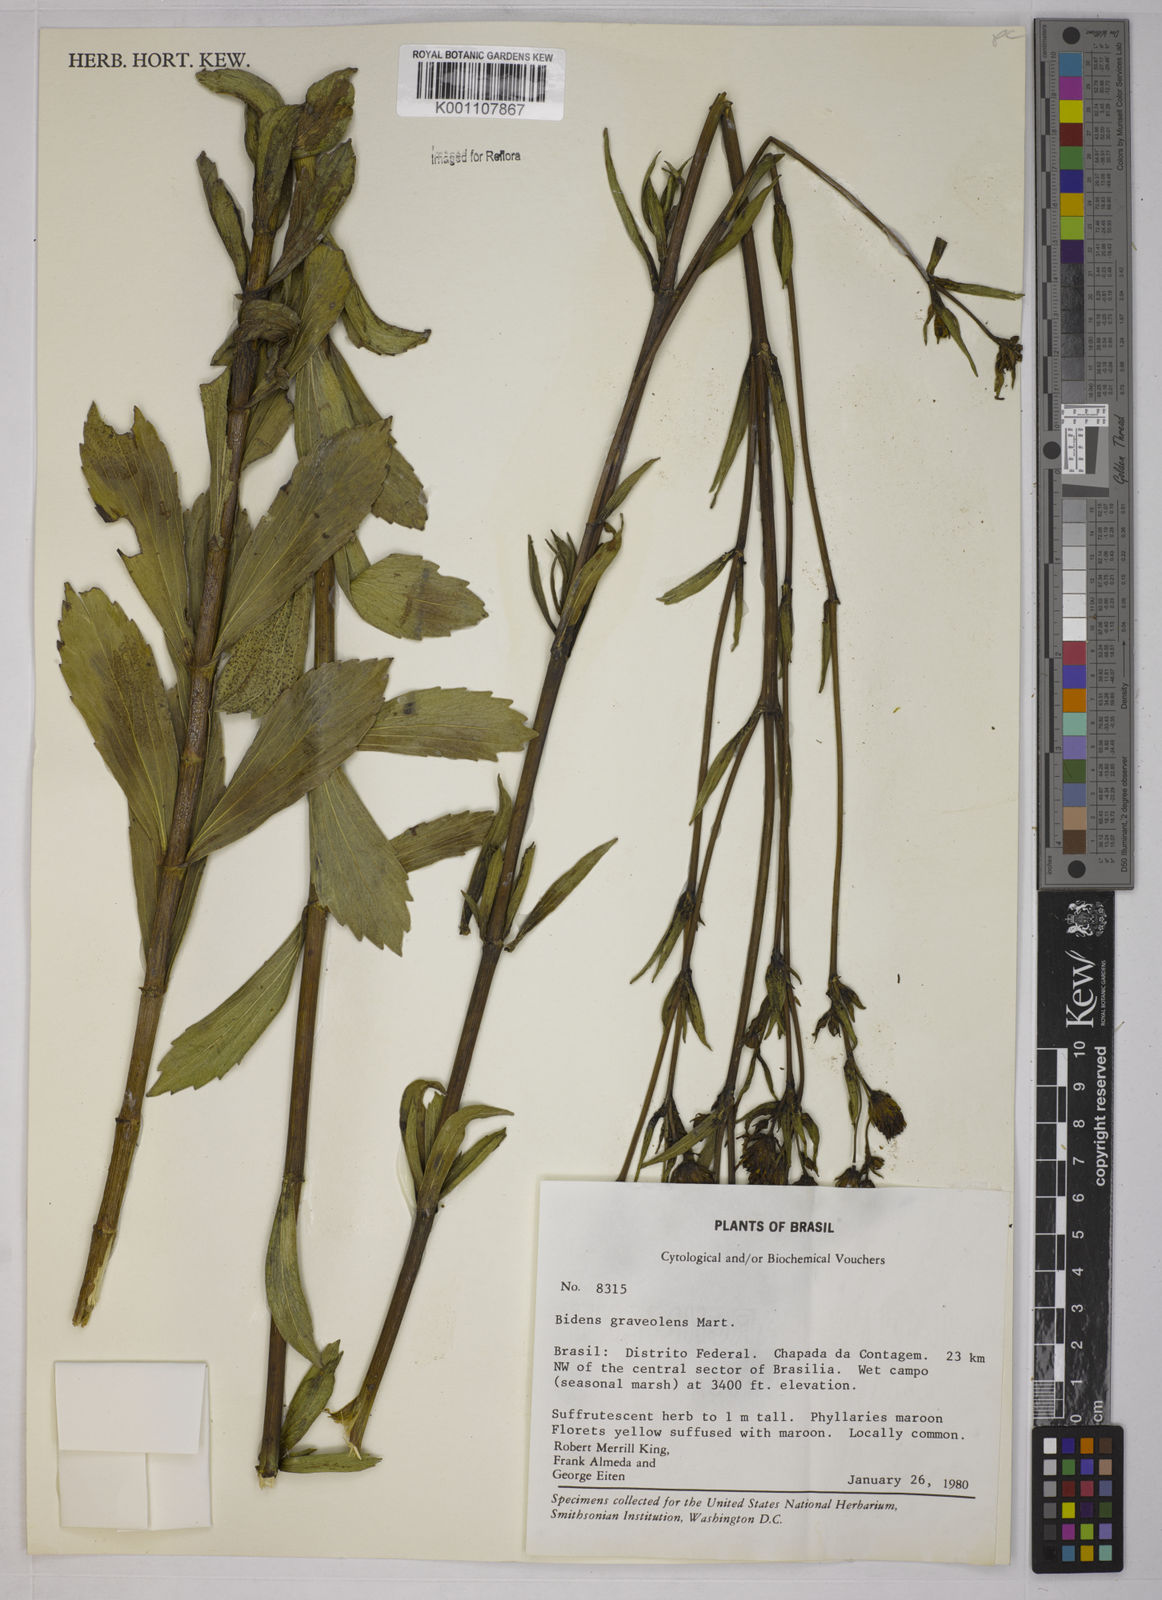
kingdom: Plantae
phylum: Tracheophyta
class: Magnoliopsida
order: Asterales
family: Asteraceae
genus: Bidens
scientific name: Bidens
